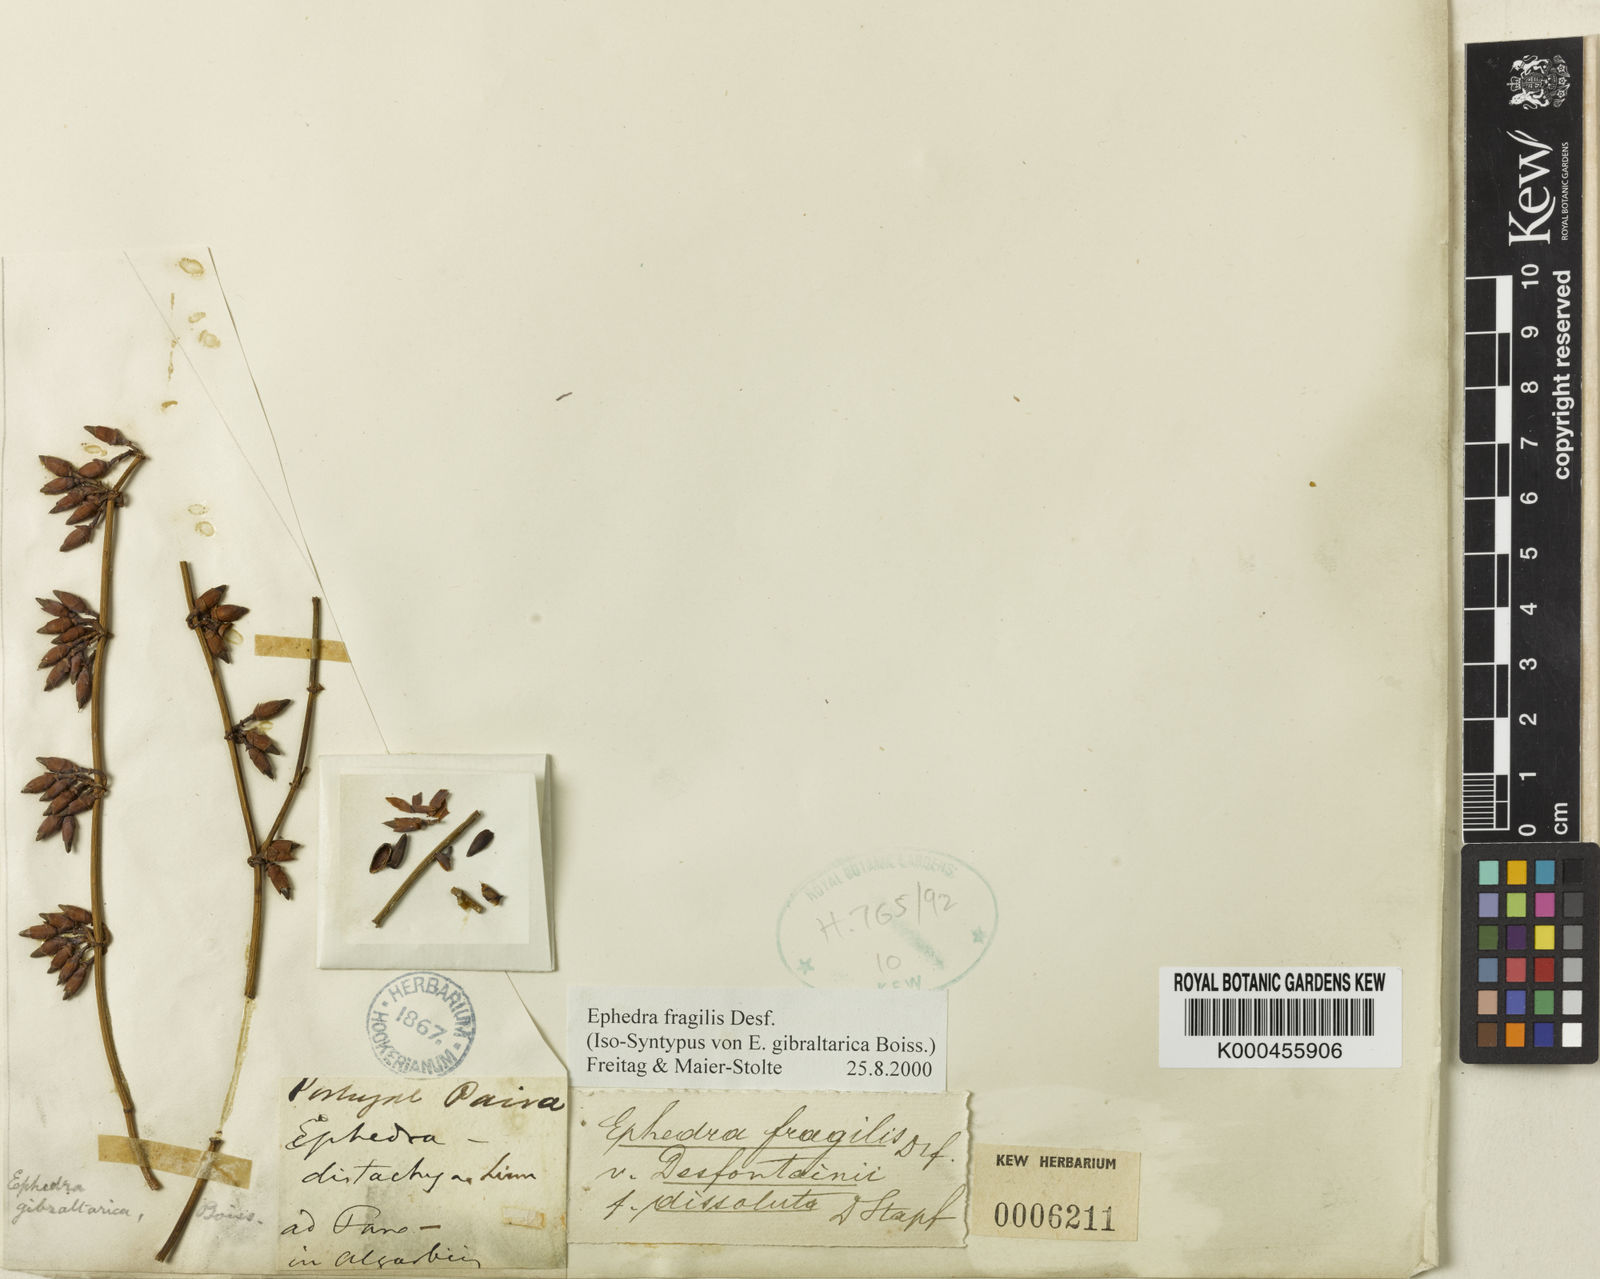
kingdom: Plantae
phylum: Tracheophyta
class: Gnetopsida
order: Ephedrales
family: Ephedraceae
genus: Ephedra
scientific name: Ephedra fragilis
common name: Joint pine
